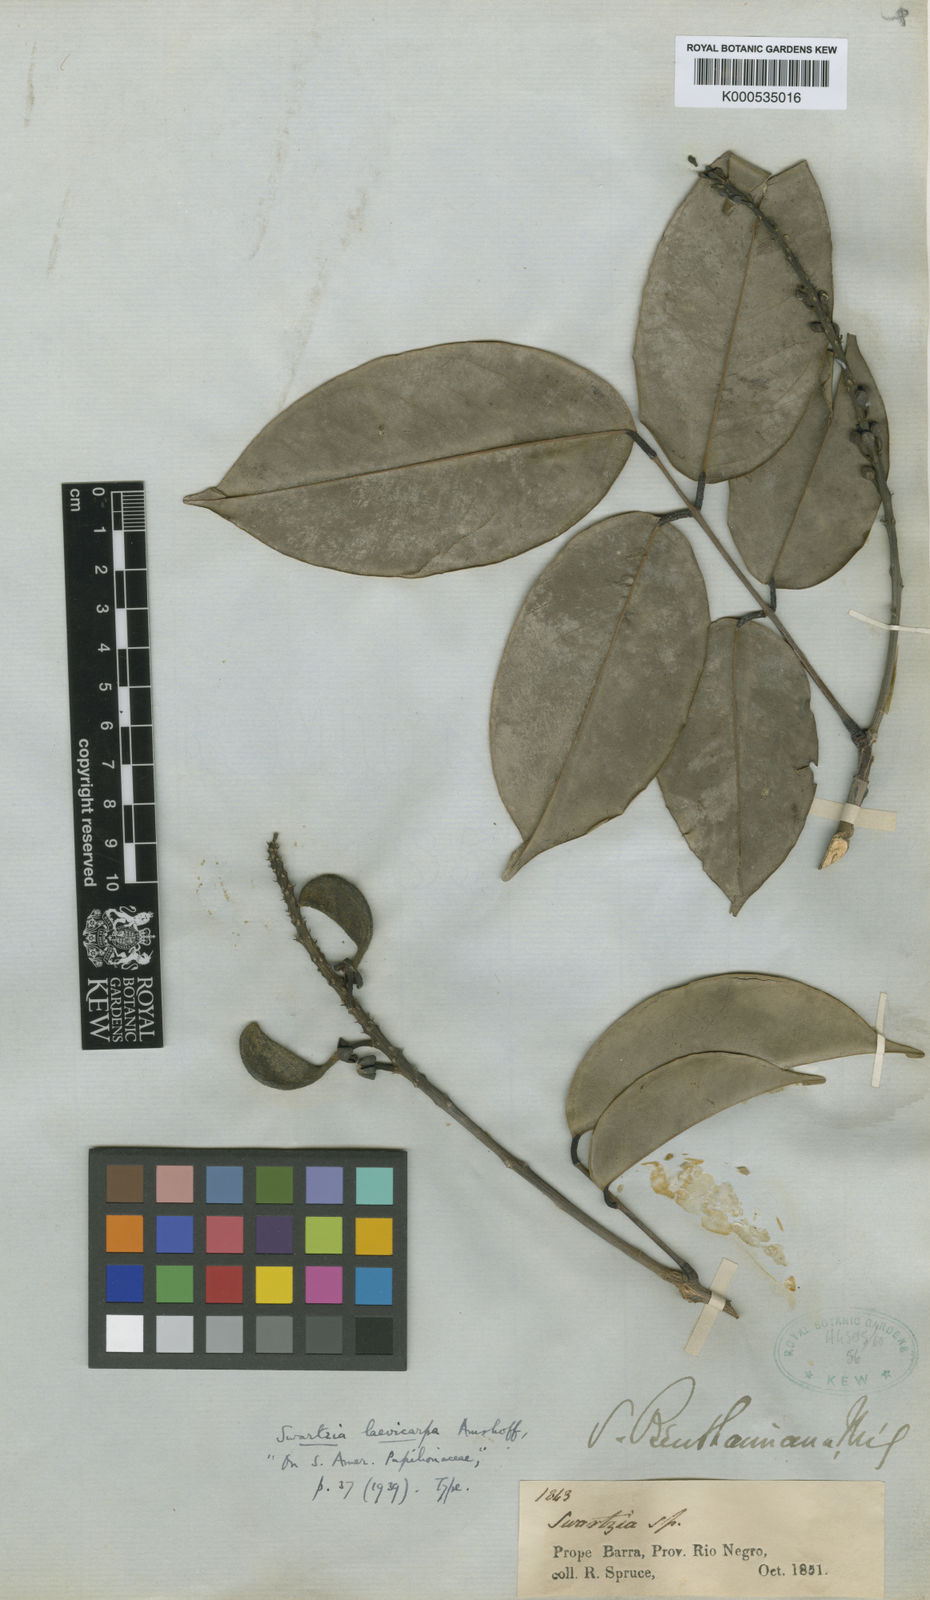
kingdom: Plantae
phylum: Tracheophyta
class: Magnoliopsida
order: Fabales
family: Fabaceae
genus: Swartzia
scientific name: Swartzia laevicarpa
